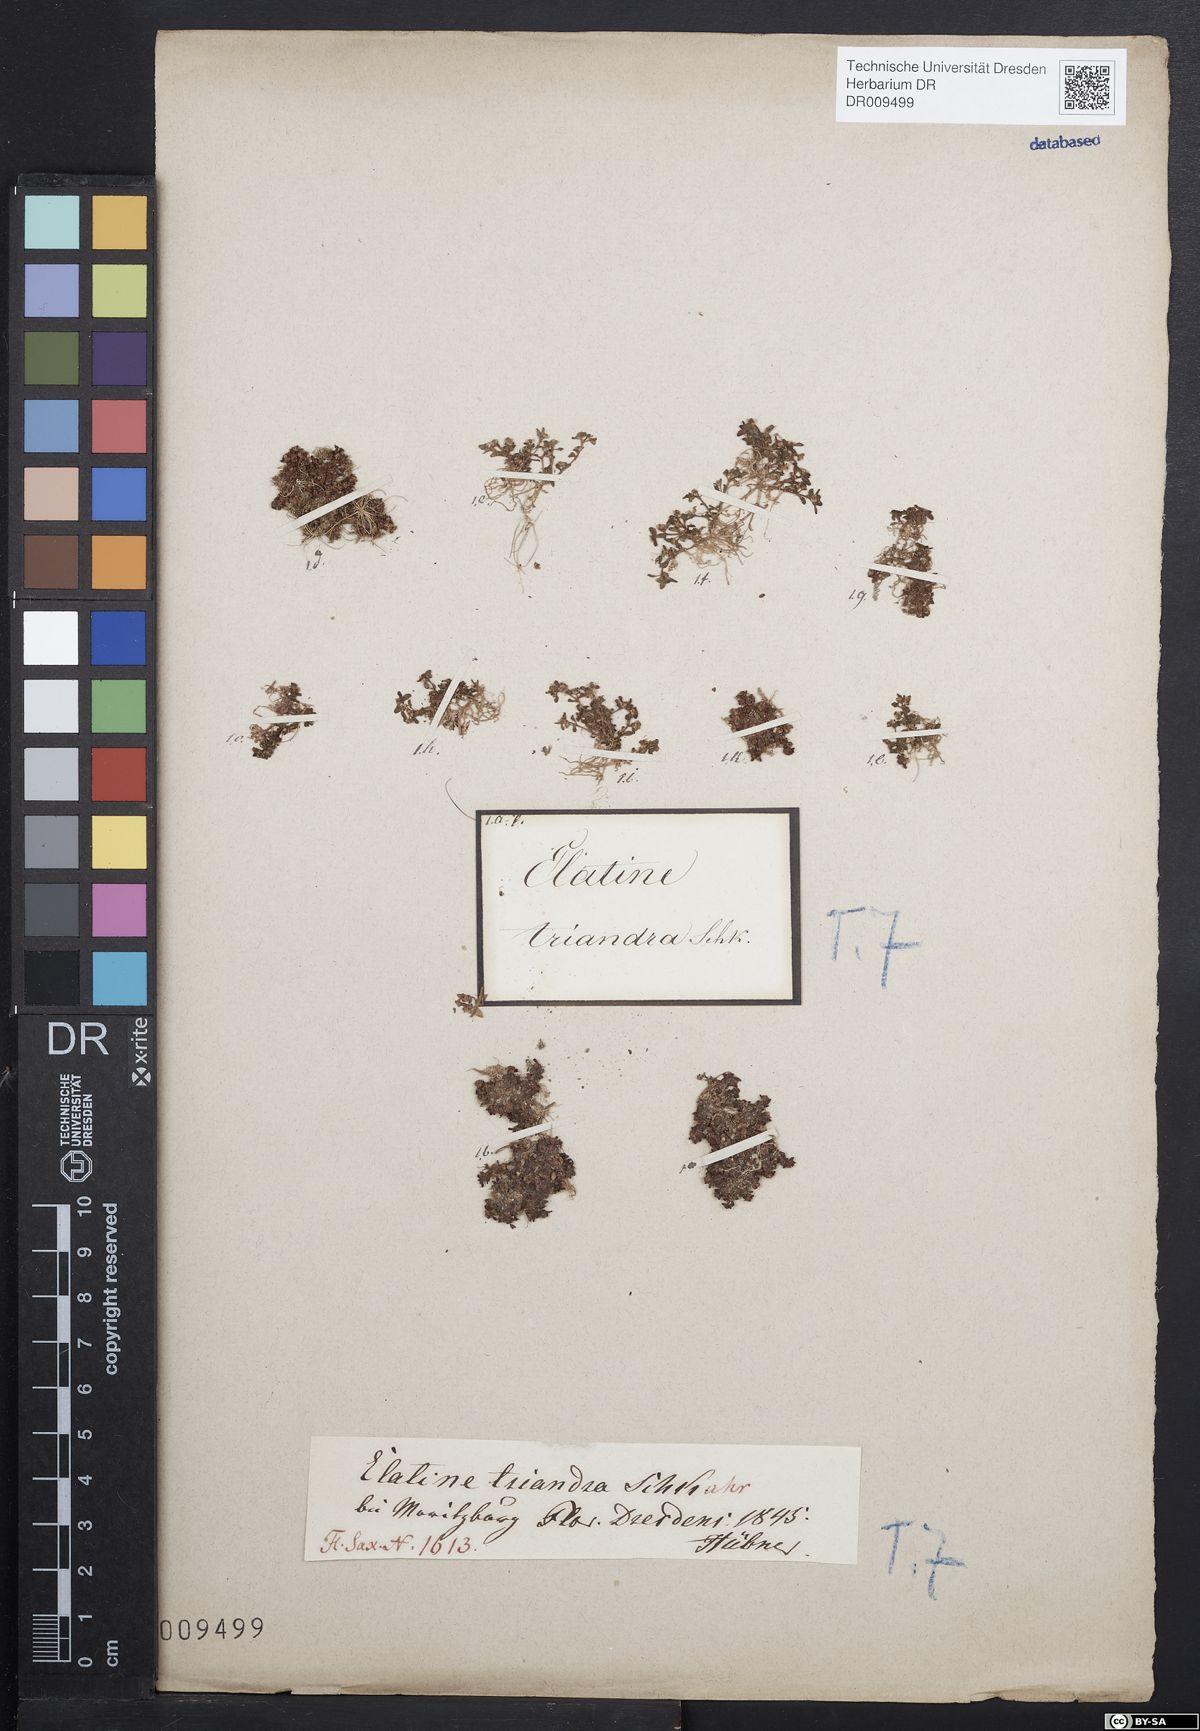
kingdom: Plantae
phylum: Tracheophyta
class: Magnoliopsida
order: Malpighiales
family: Elatinaceae
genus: Elatine
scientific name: Elatine triandra
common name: Three-stamened waterwort
